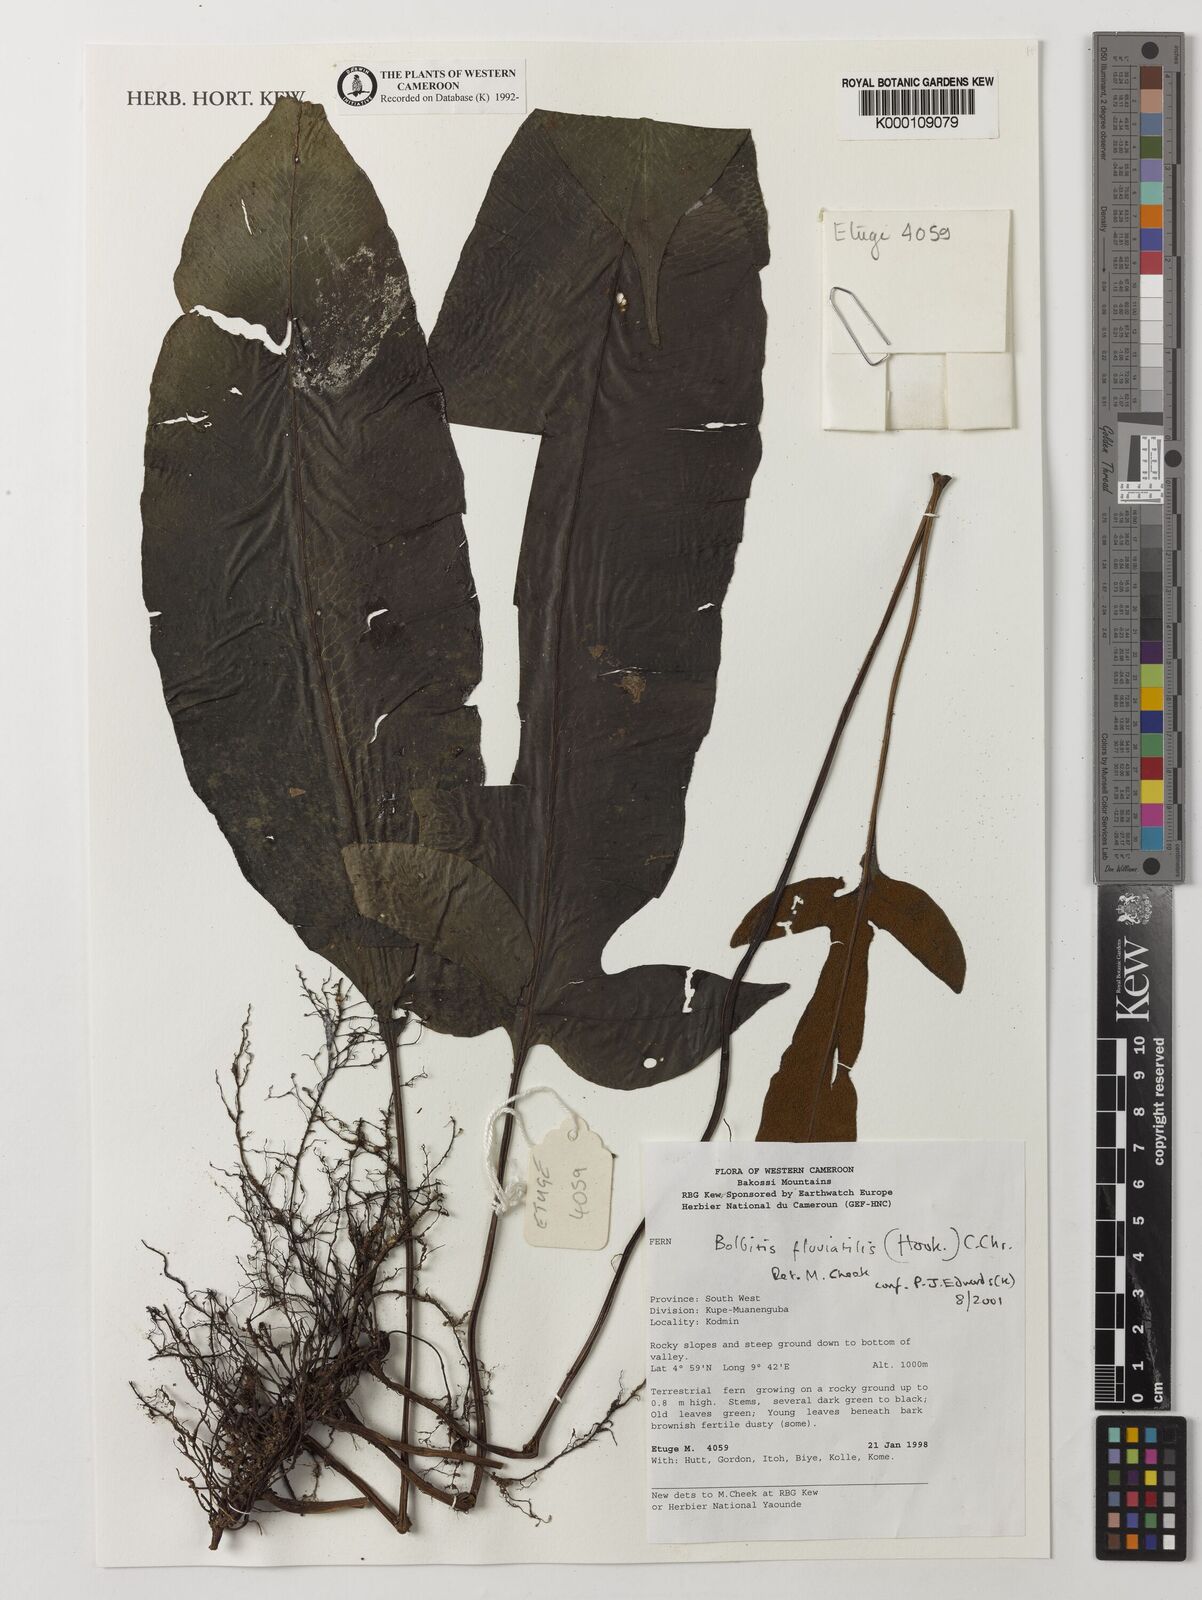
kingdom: Plantae
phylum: Tracheophyta
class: Polypodiopsida
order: Polypodiales
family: Dryopteridaceae
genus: Bolbitis
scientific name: Bolbitis fluviatilis
